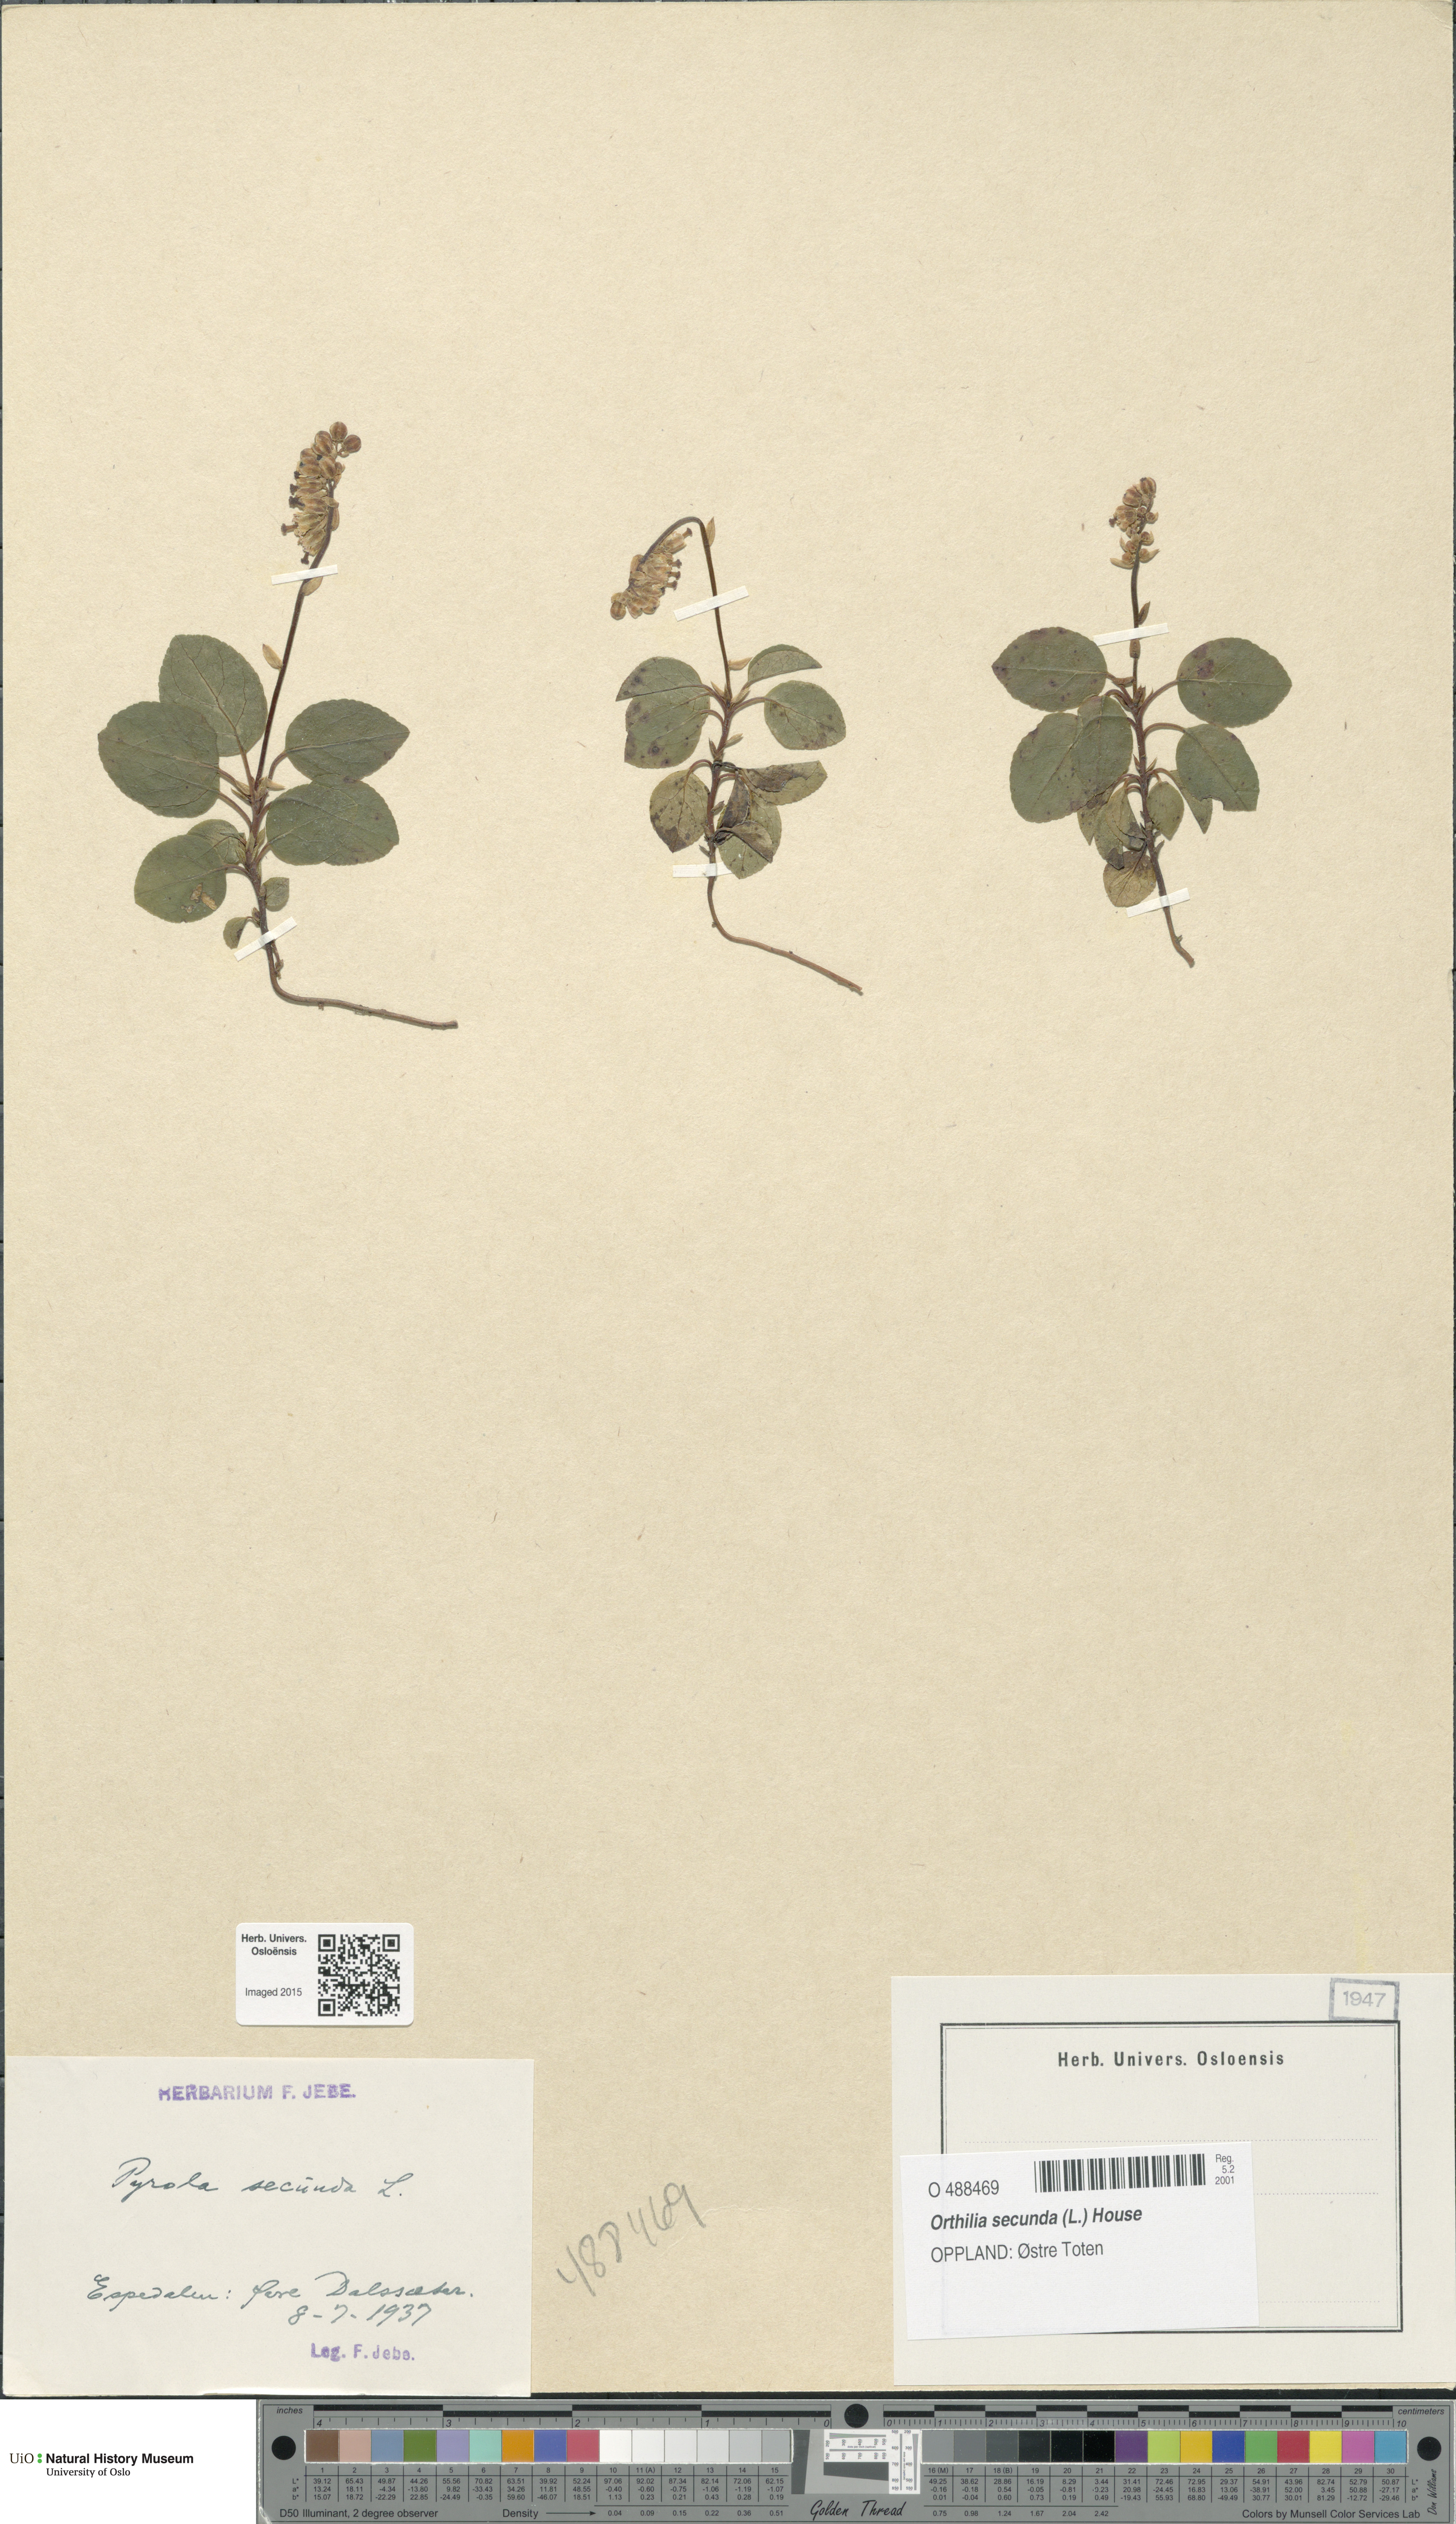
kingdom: Plantae
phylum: Tracheophyta
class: Magnoliopsida
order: Ericales
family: Ericaceae
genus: Orthilia
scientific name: Orthilia secunda
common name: One-sided orthilia
